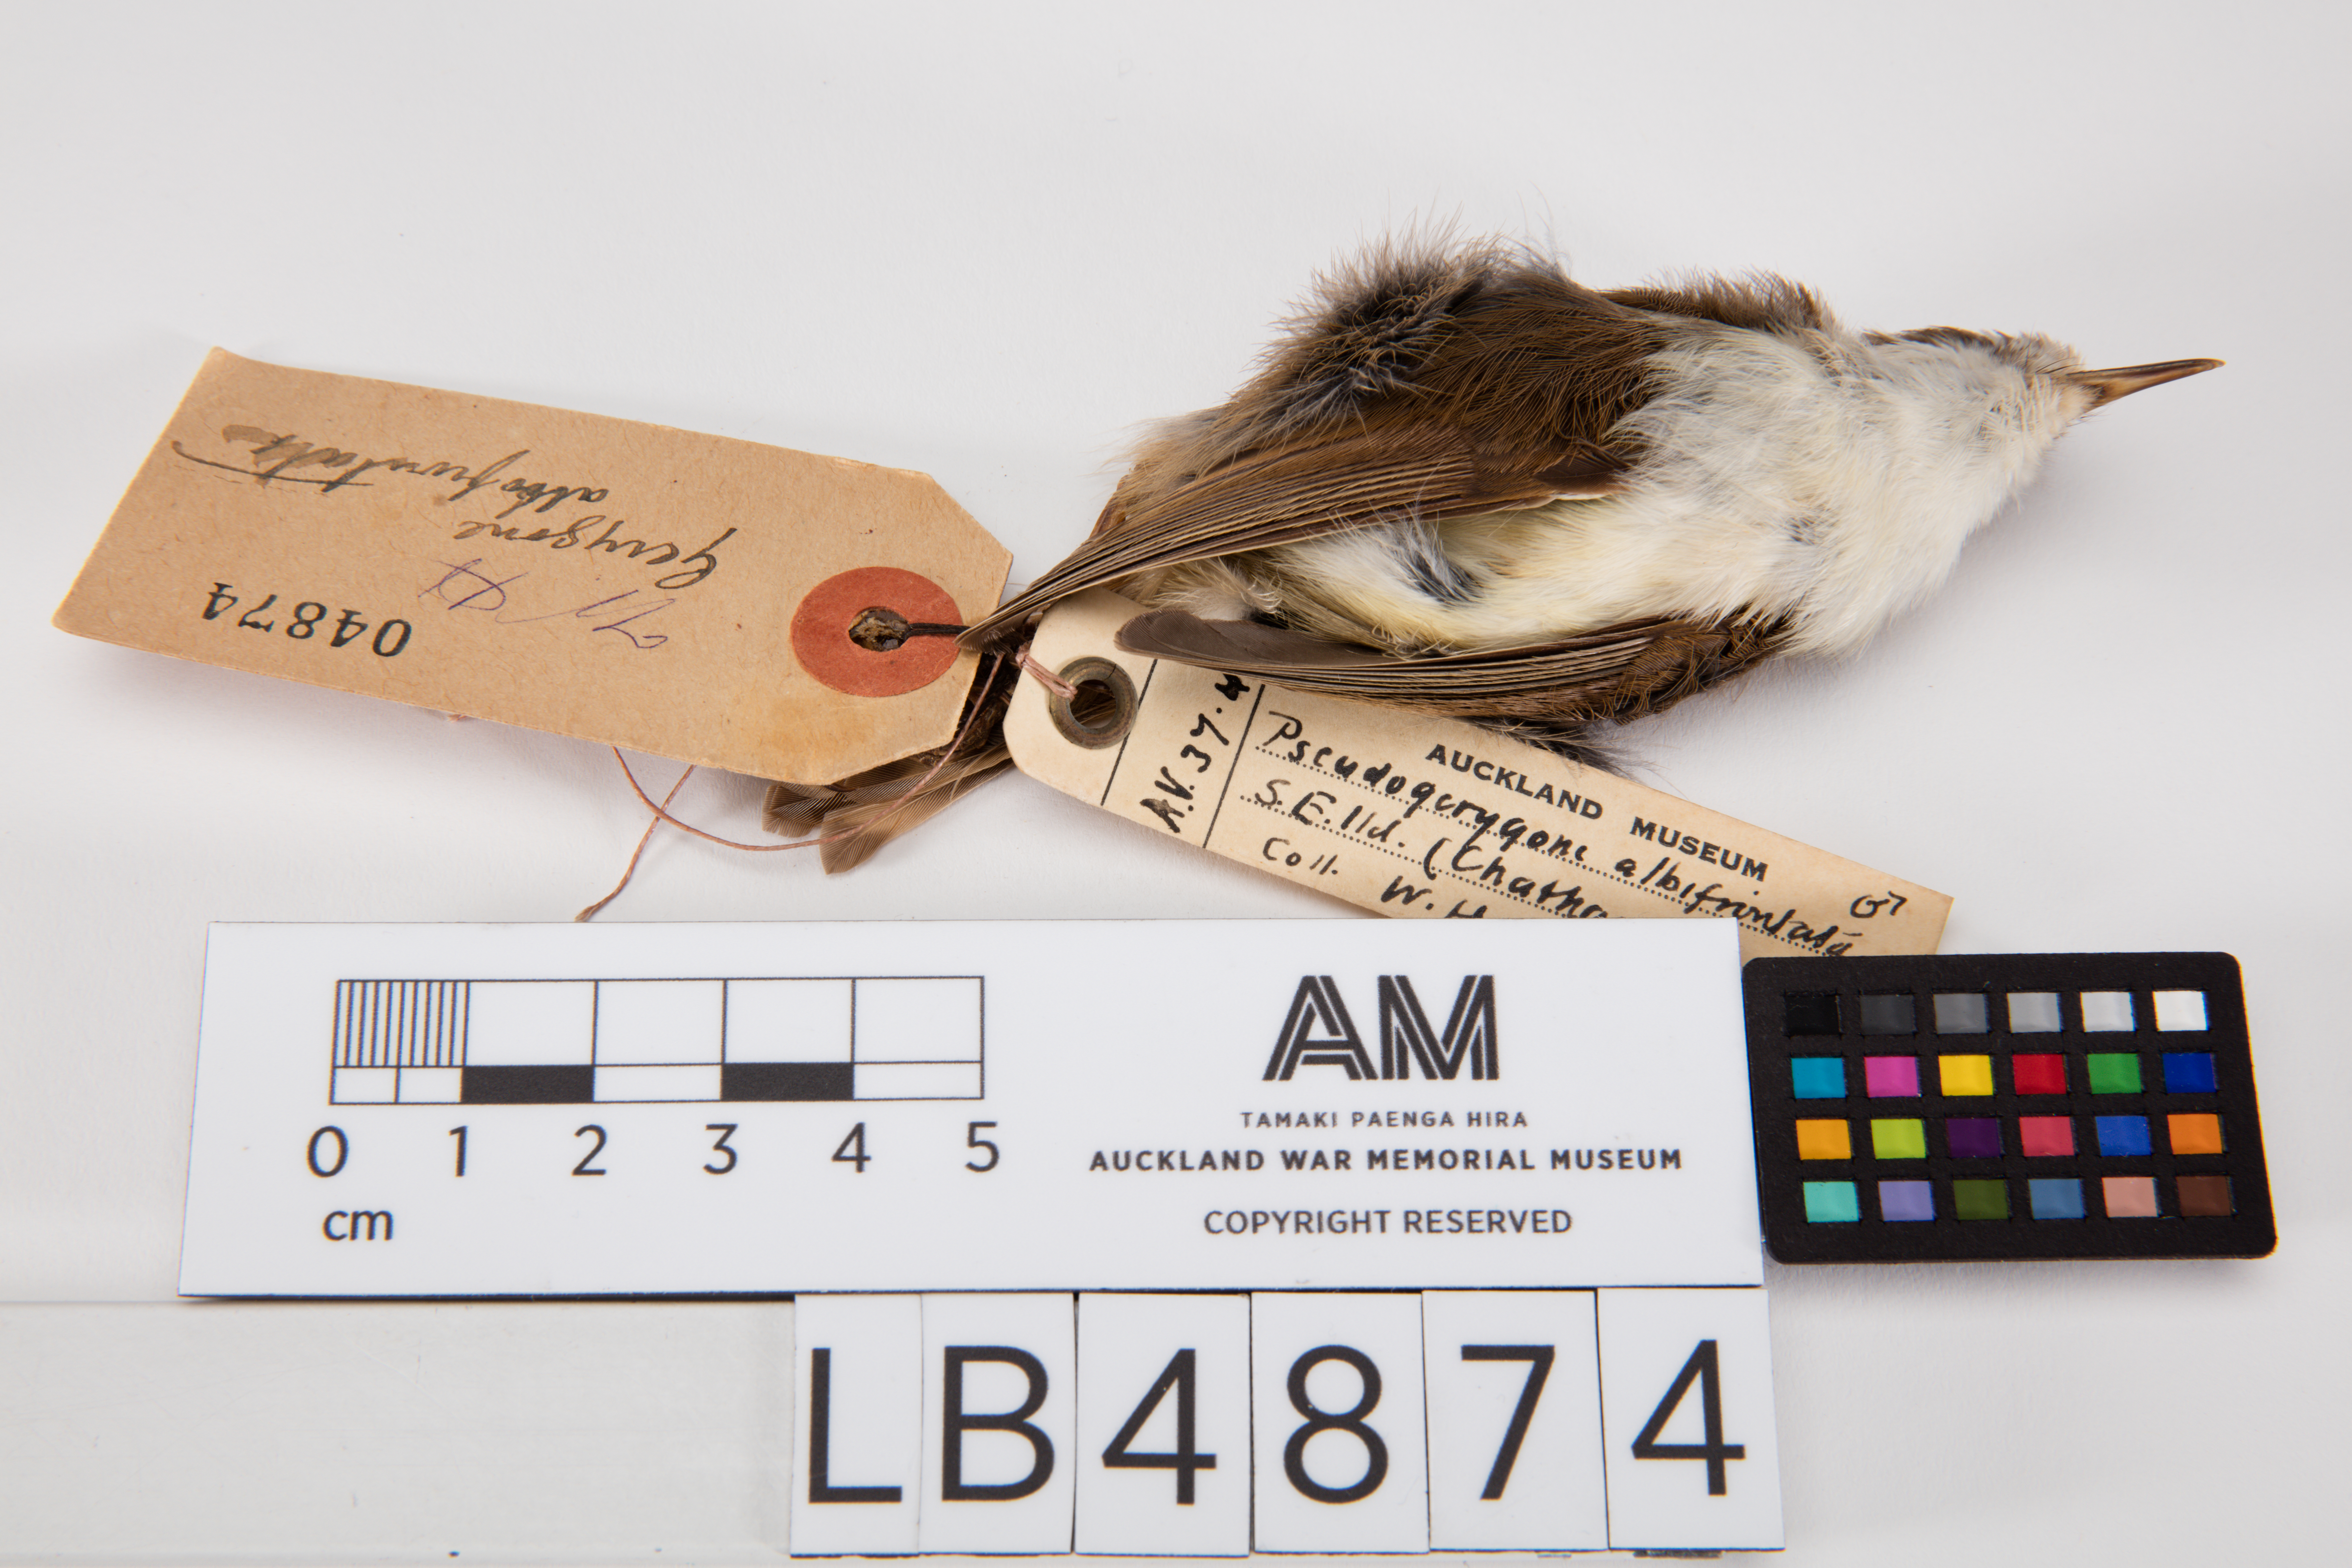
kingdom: Animalia
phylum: Chordata
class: Aves
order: Passeriformes
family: Acanthizidae
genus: Gerygone
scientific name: Gerygone albofrontata
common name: Chatham gerygone
